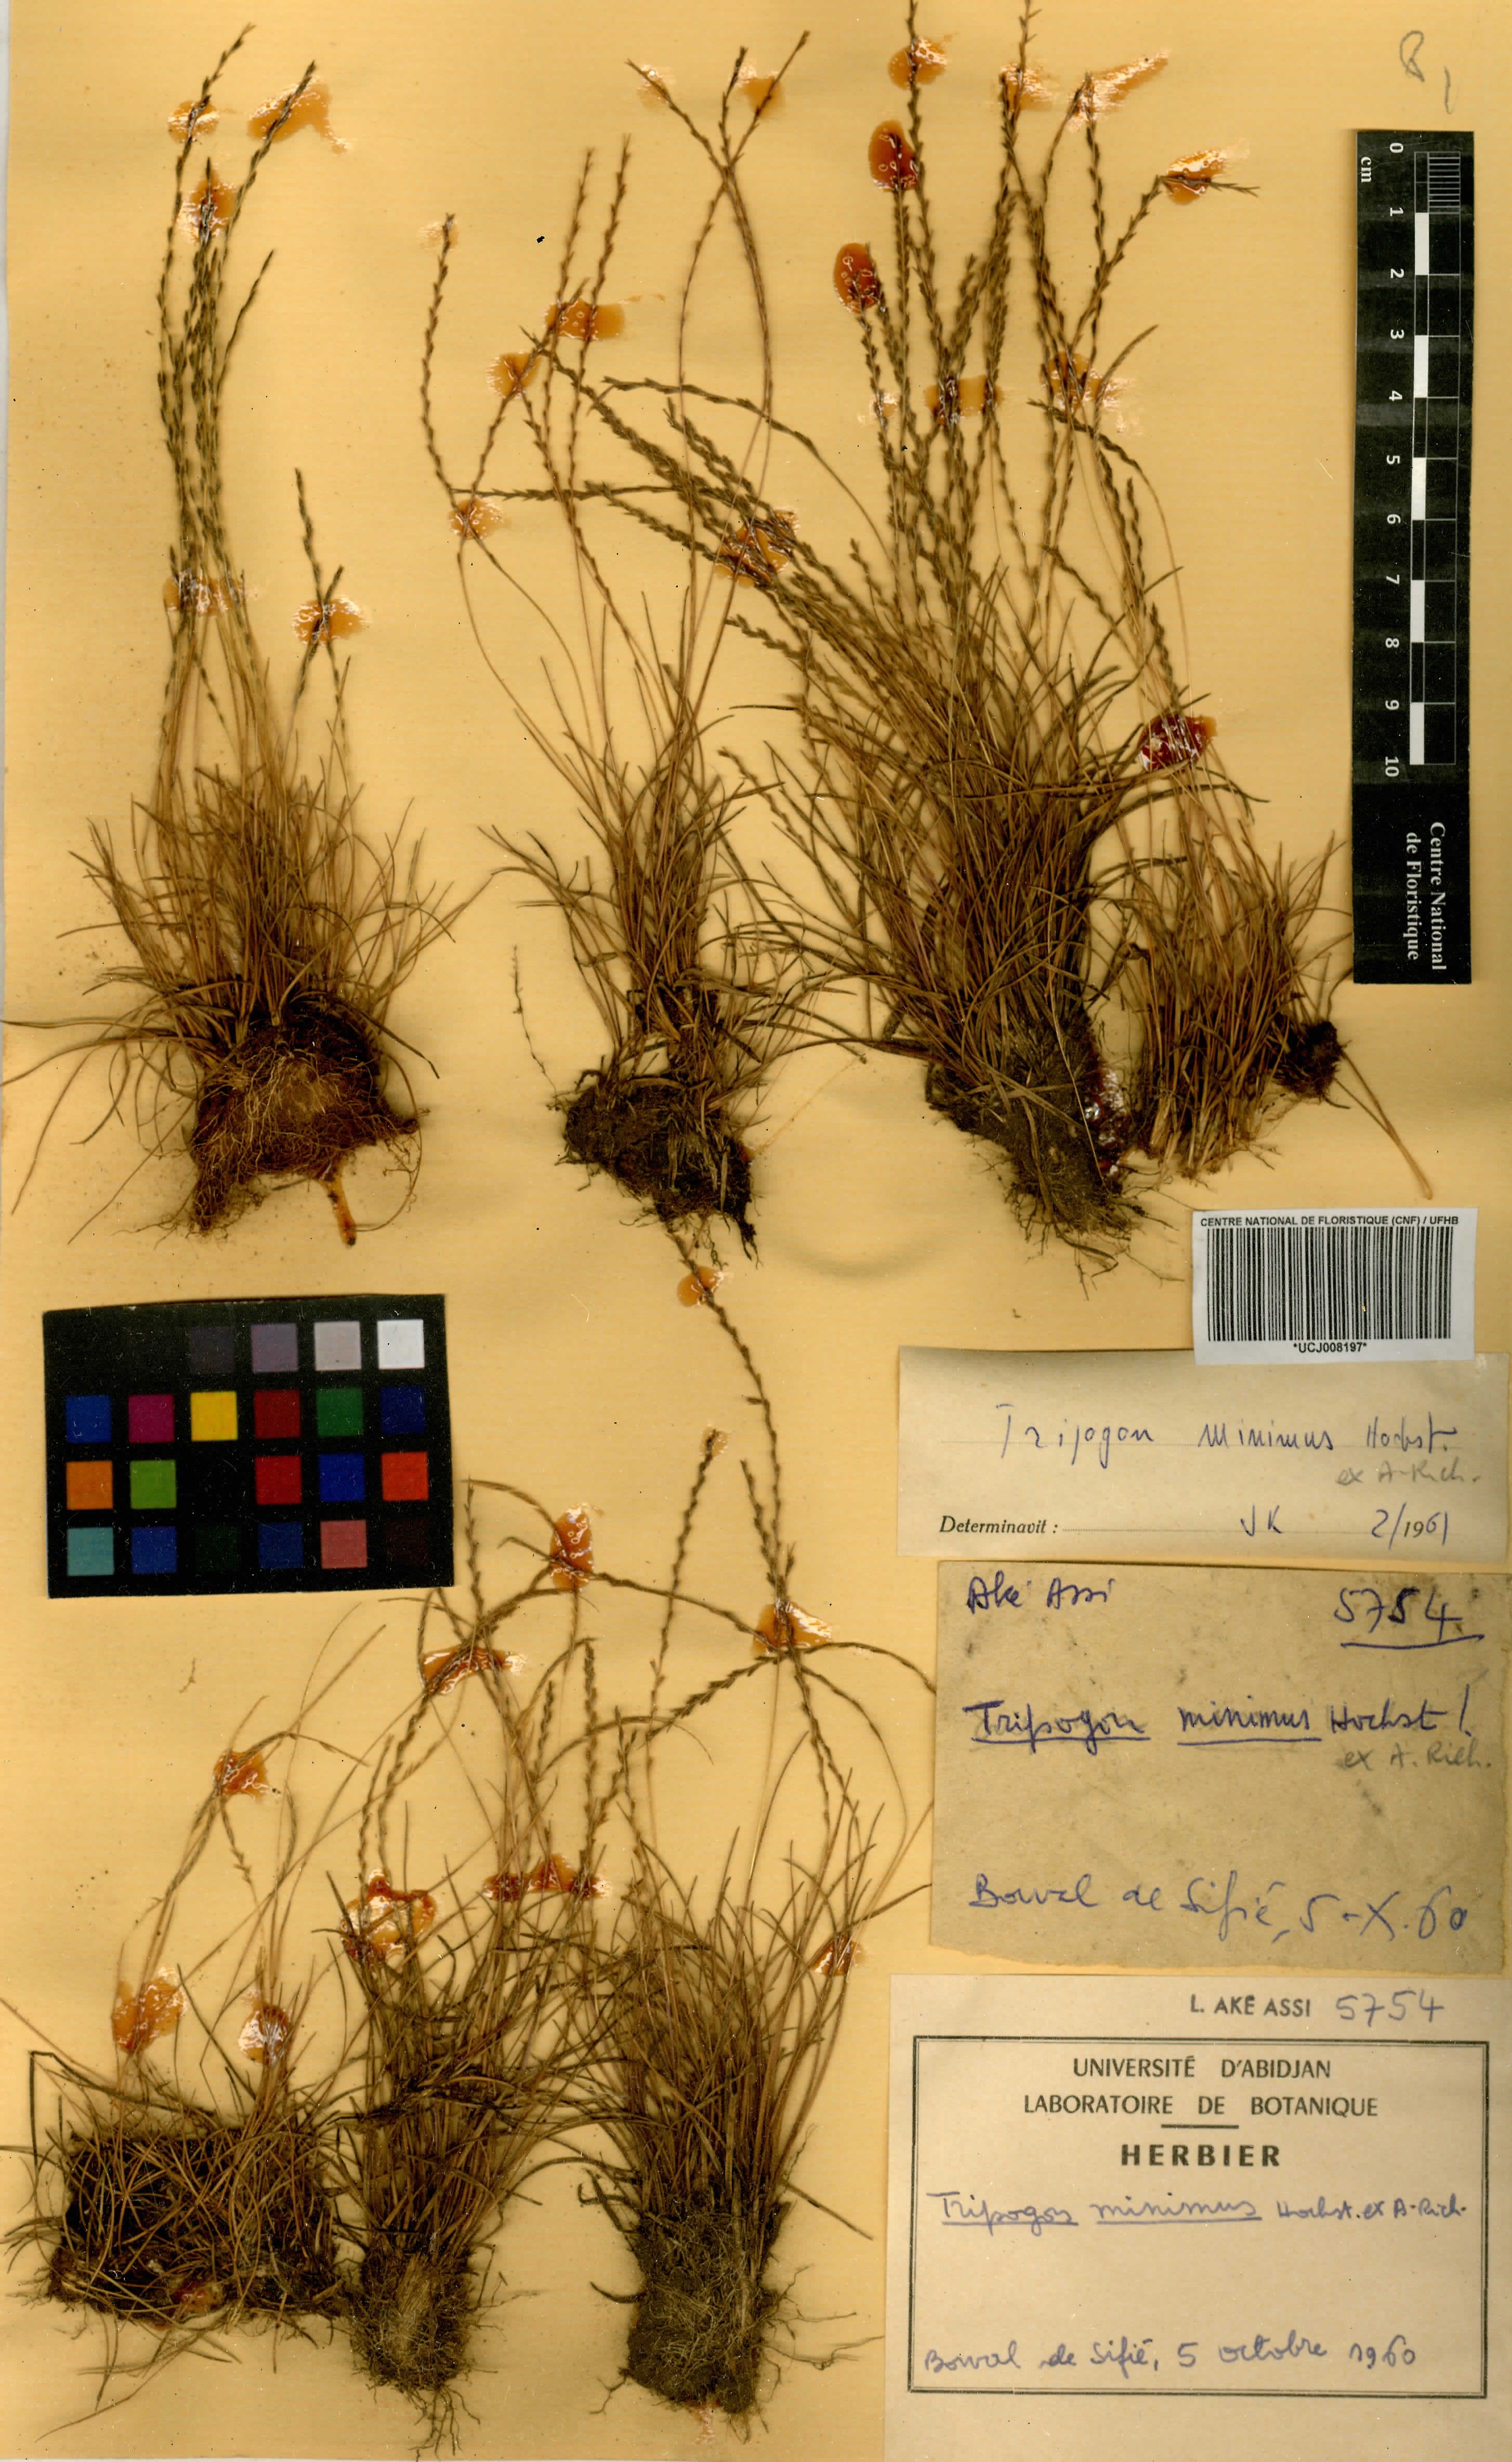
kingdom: Plantae
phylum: Tracheophyta
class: Liliopsida
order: Poales
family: Poaceae
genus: Tripogonella
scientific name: Tripogonella minima
